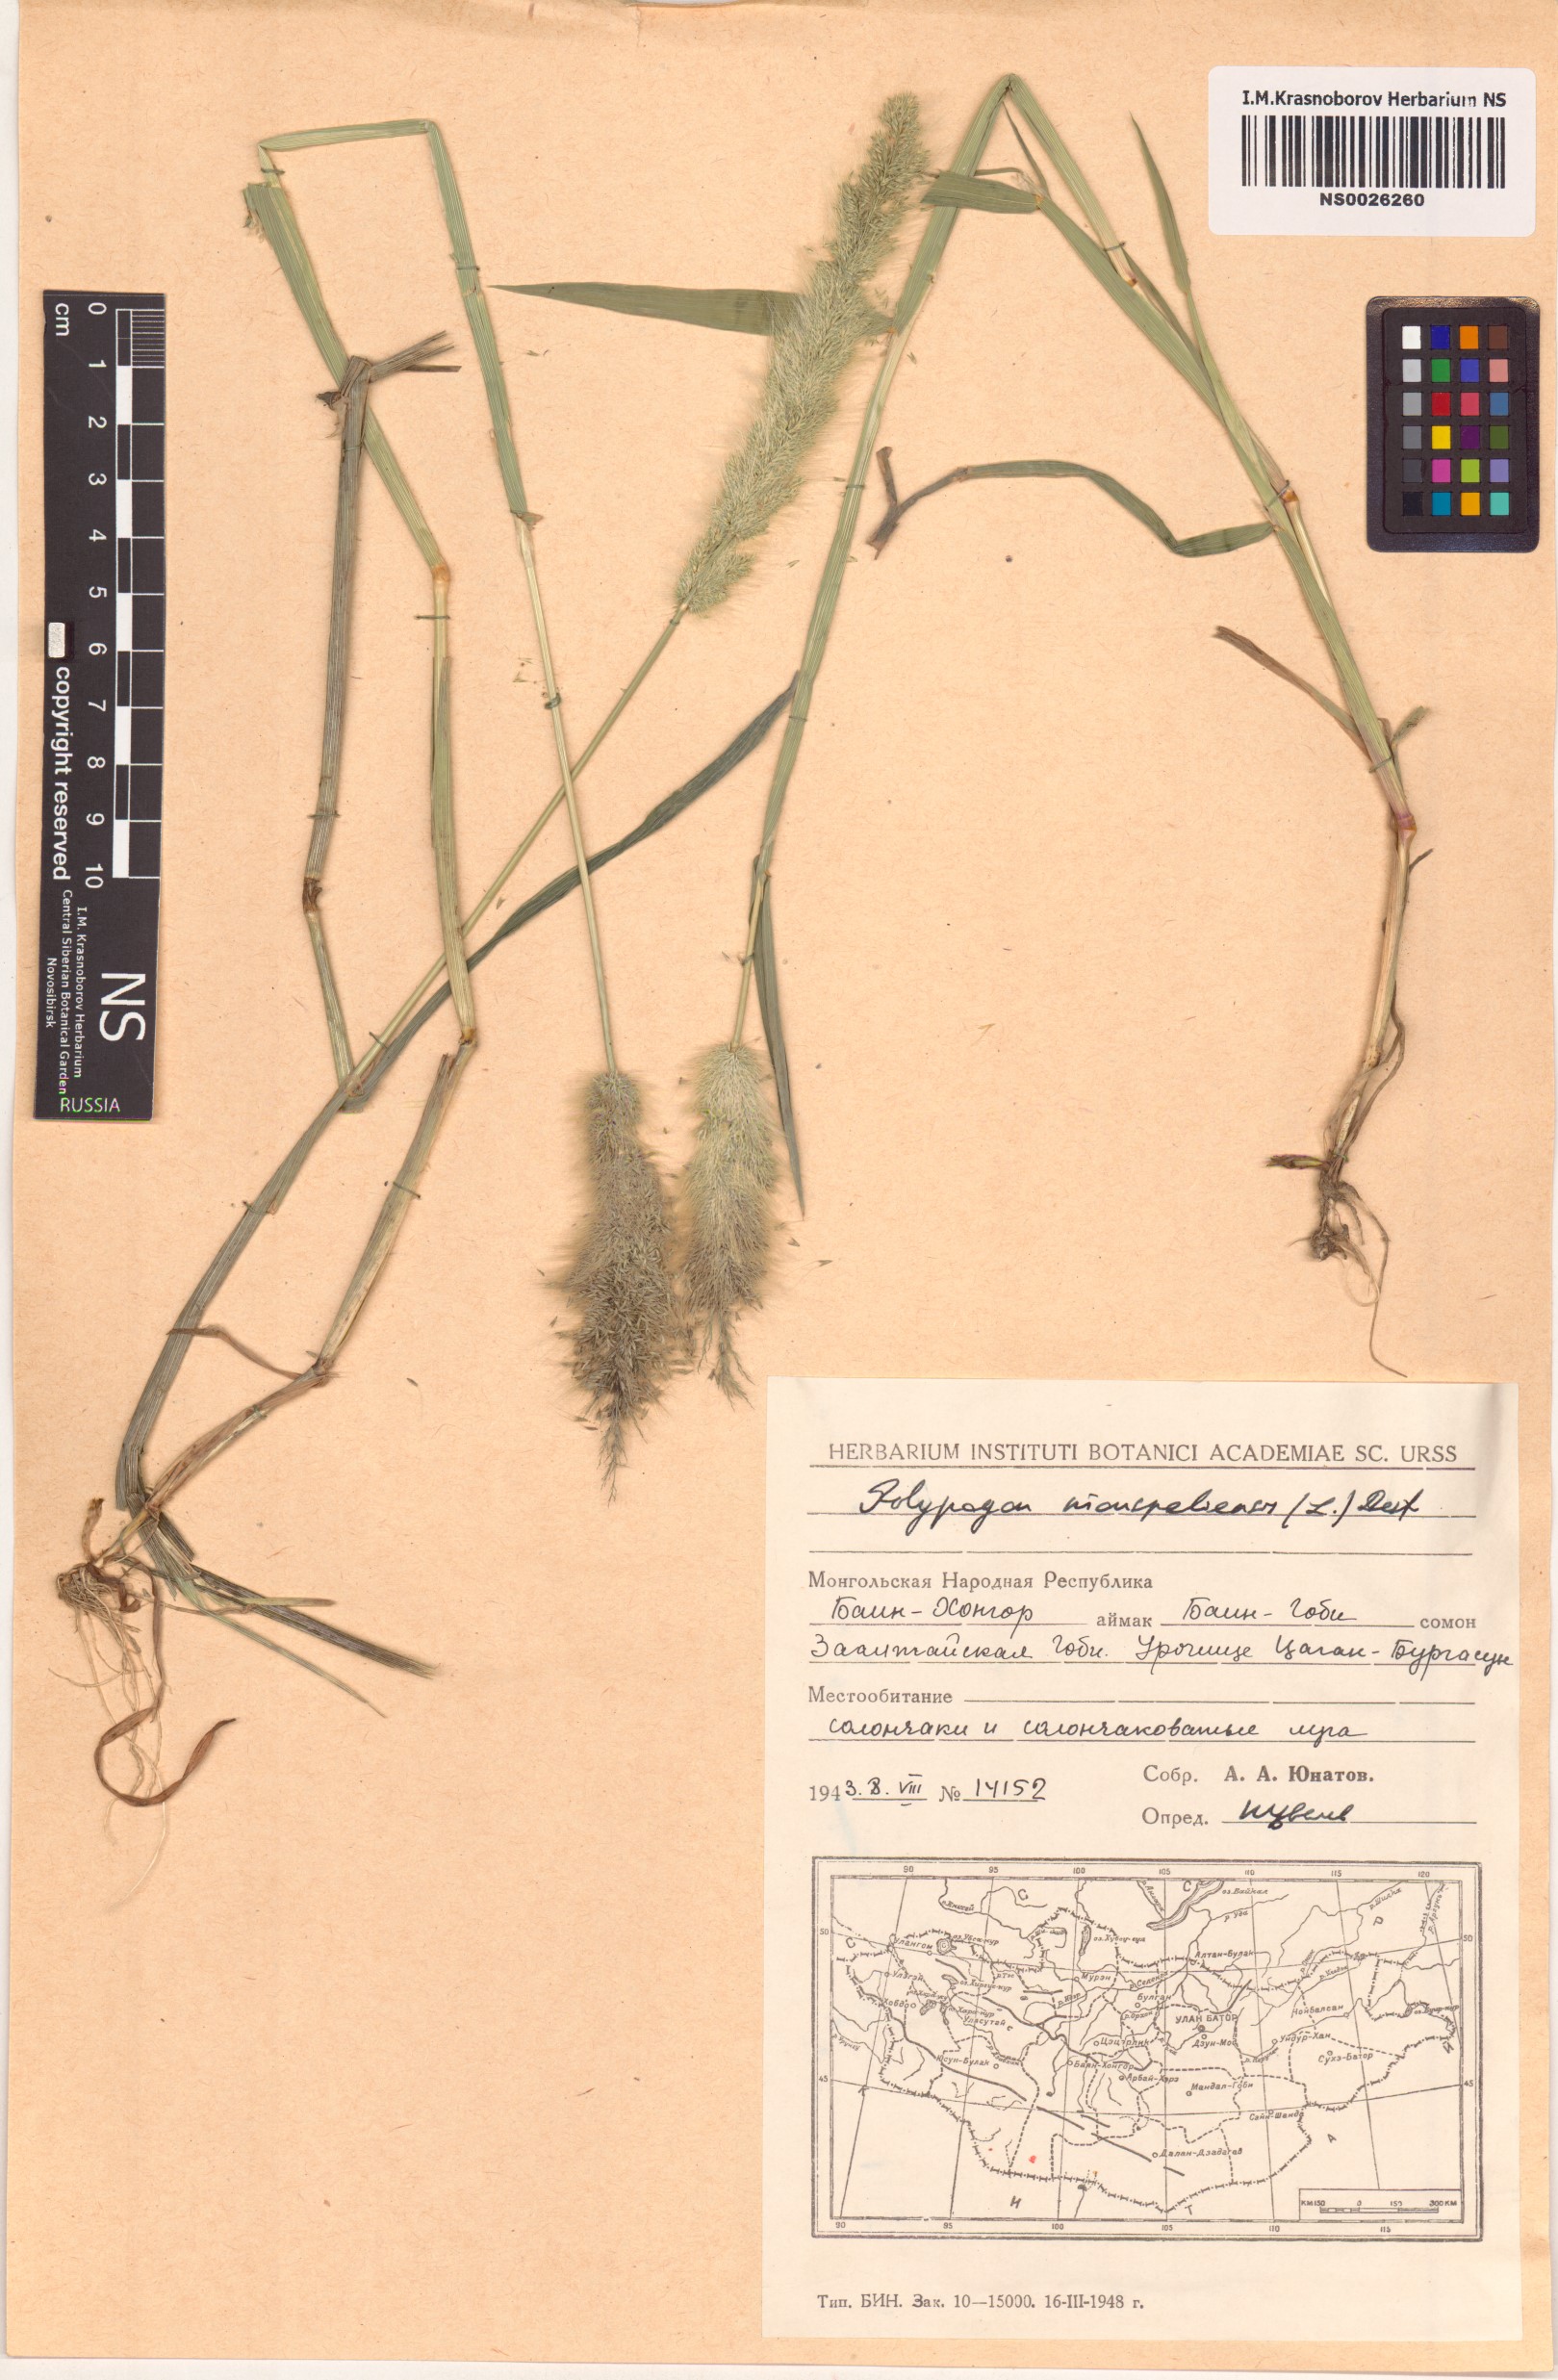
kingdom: Plantae
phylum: Tracheophyta
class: Liliopsida
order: Poales
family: Poaceae
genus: Polypogon
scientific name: Polypogon monspeliensis
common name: Annual rabbitsfoot grass
